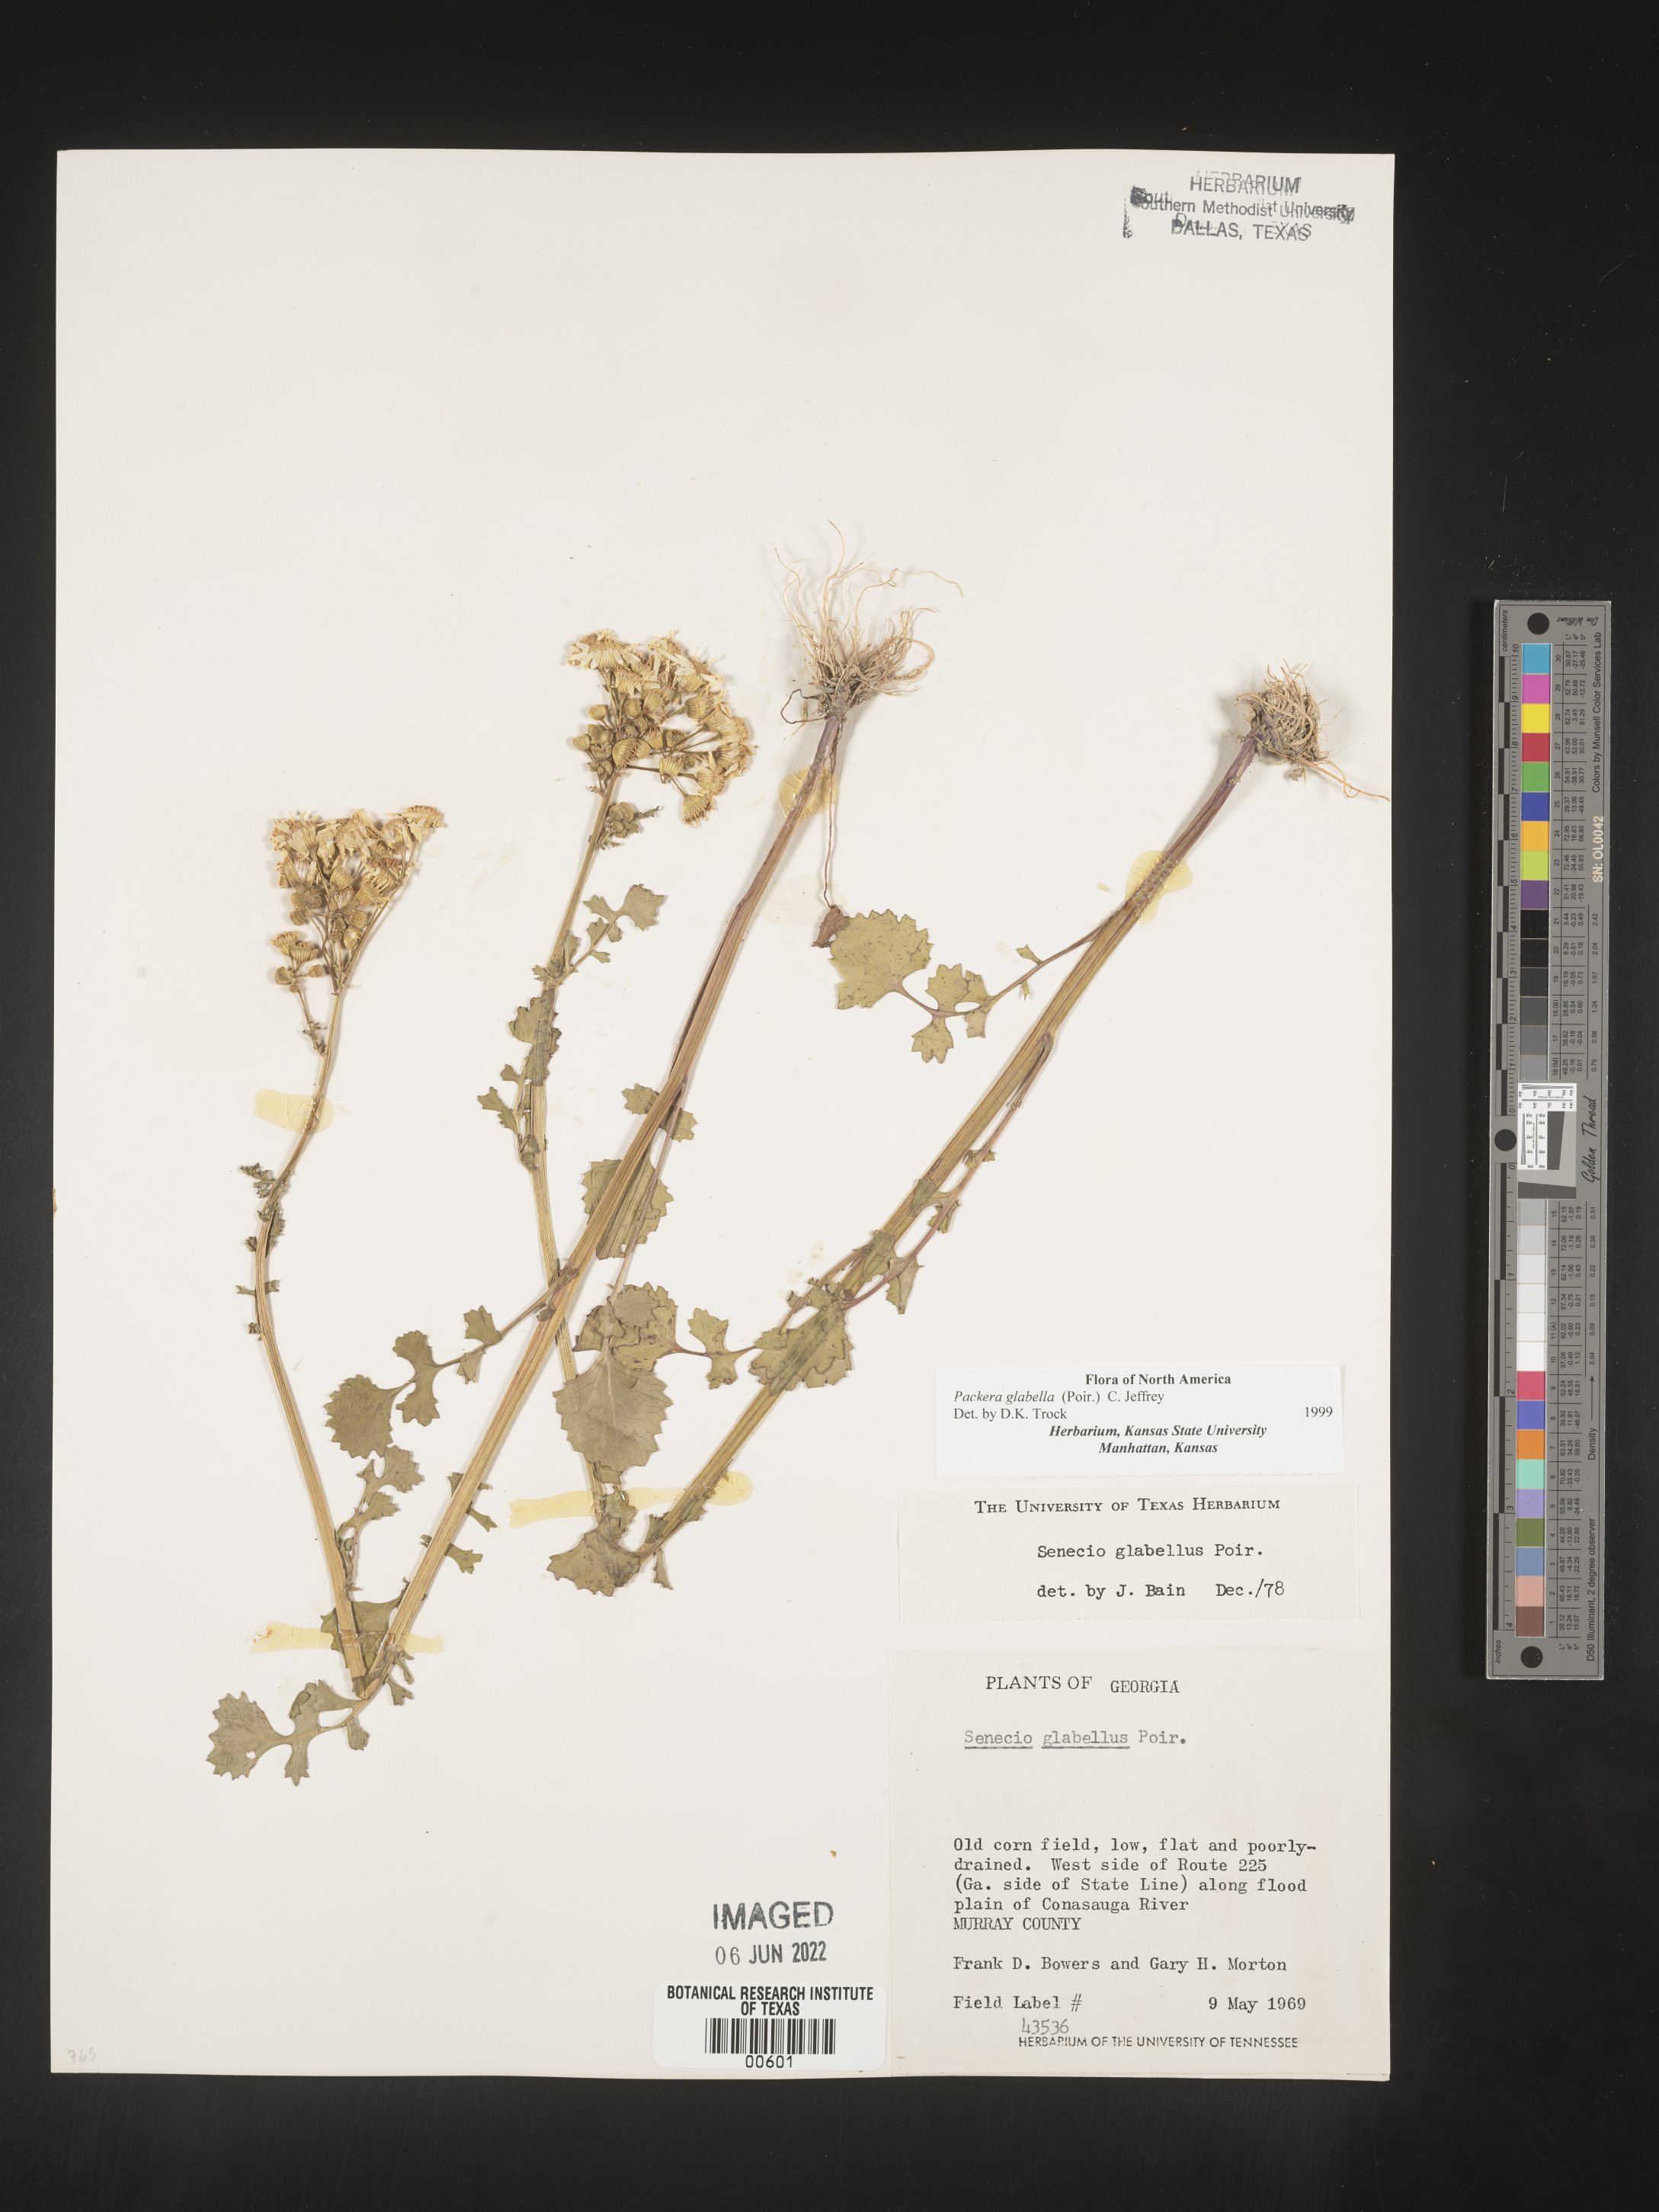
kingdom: Plantae
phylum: Tracheophyta
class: Magnoliopsida
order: Asterales
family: Asteraceae
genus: Packera
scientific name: Packera glabella
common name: Butterweed
